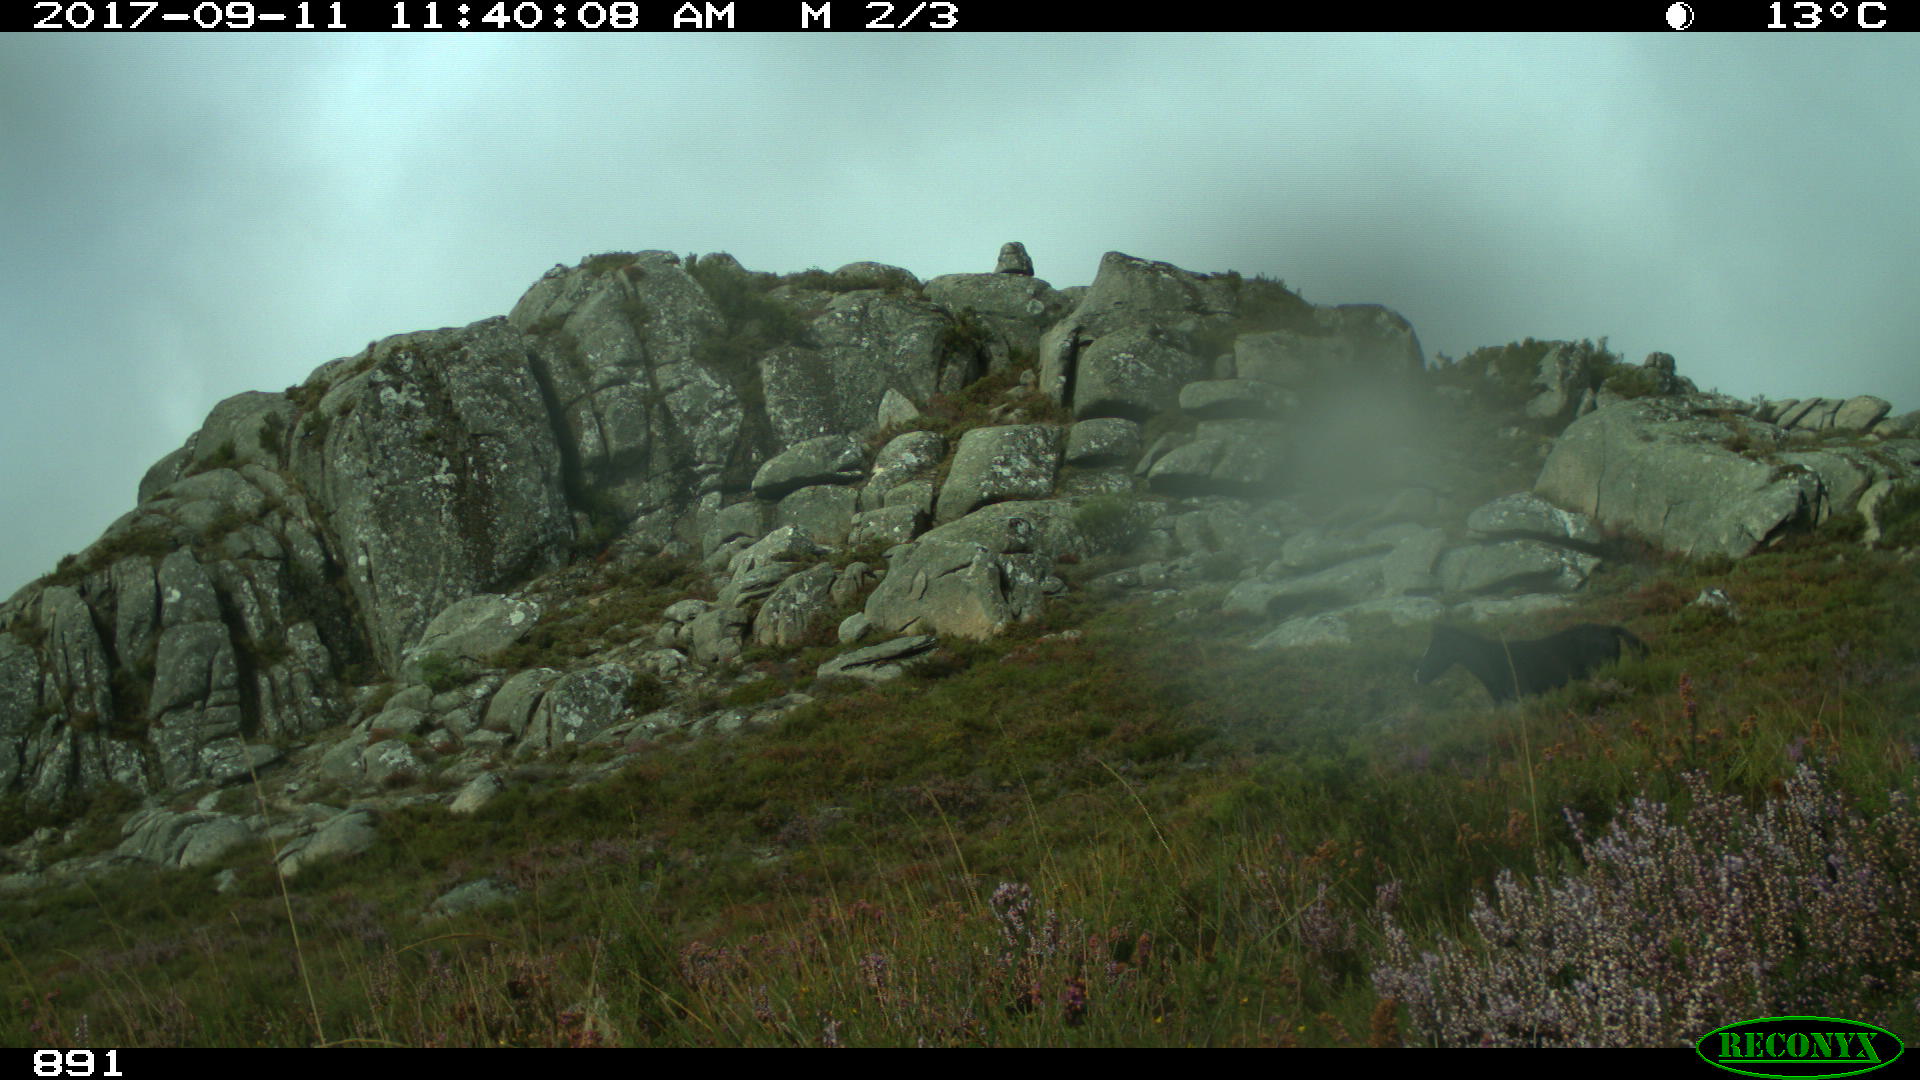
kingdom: Animalia
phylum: Chordata
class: Mammalia
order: Perissodactyla
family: Equidae
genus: Equus
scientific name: Equus caballus
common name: Horse
